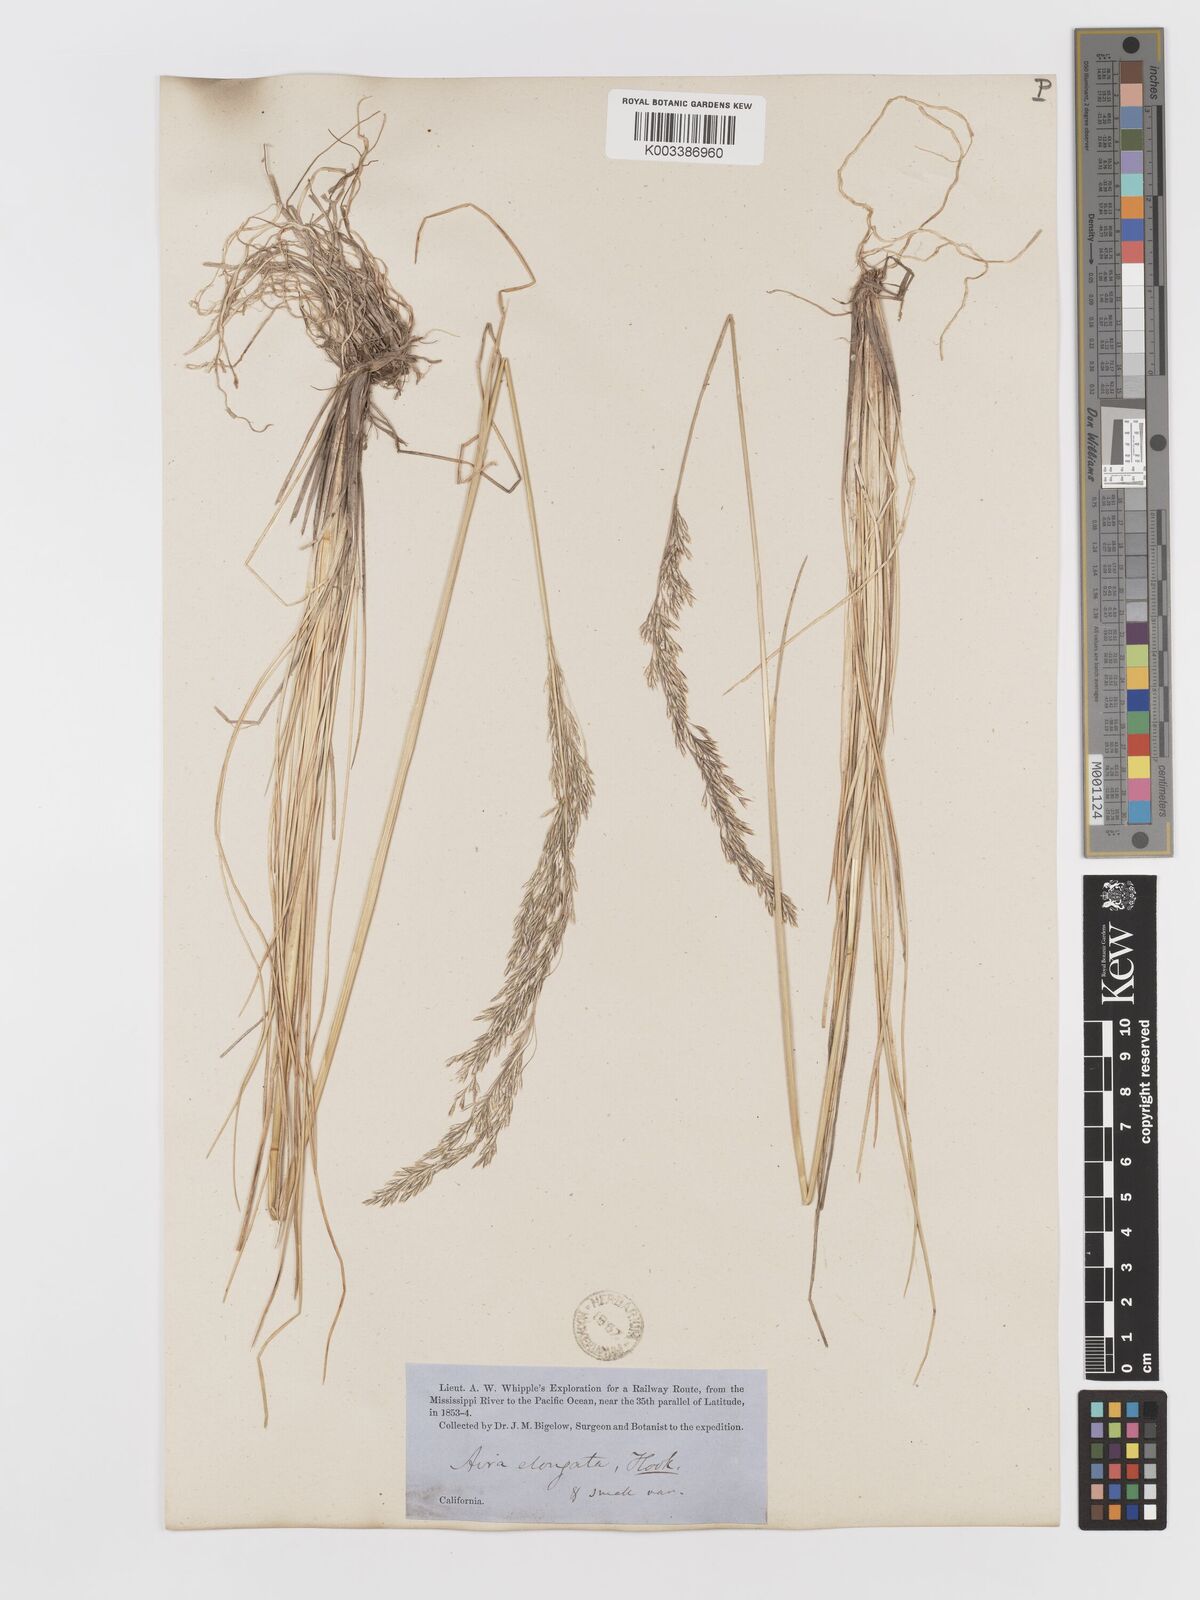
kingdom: Plantae
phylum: Tracheophyta
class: Liliopsida
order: Poales
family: Poaceae
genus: Deschampsia
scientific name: Deschampsia elongata
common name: Slender hairgrass
